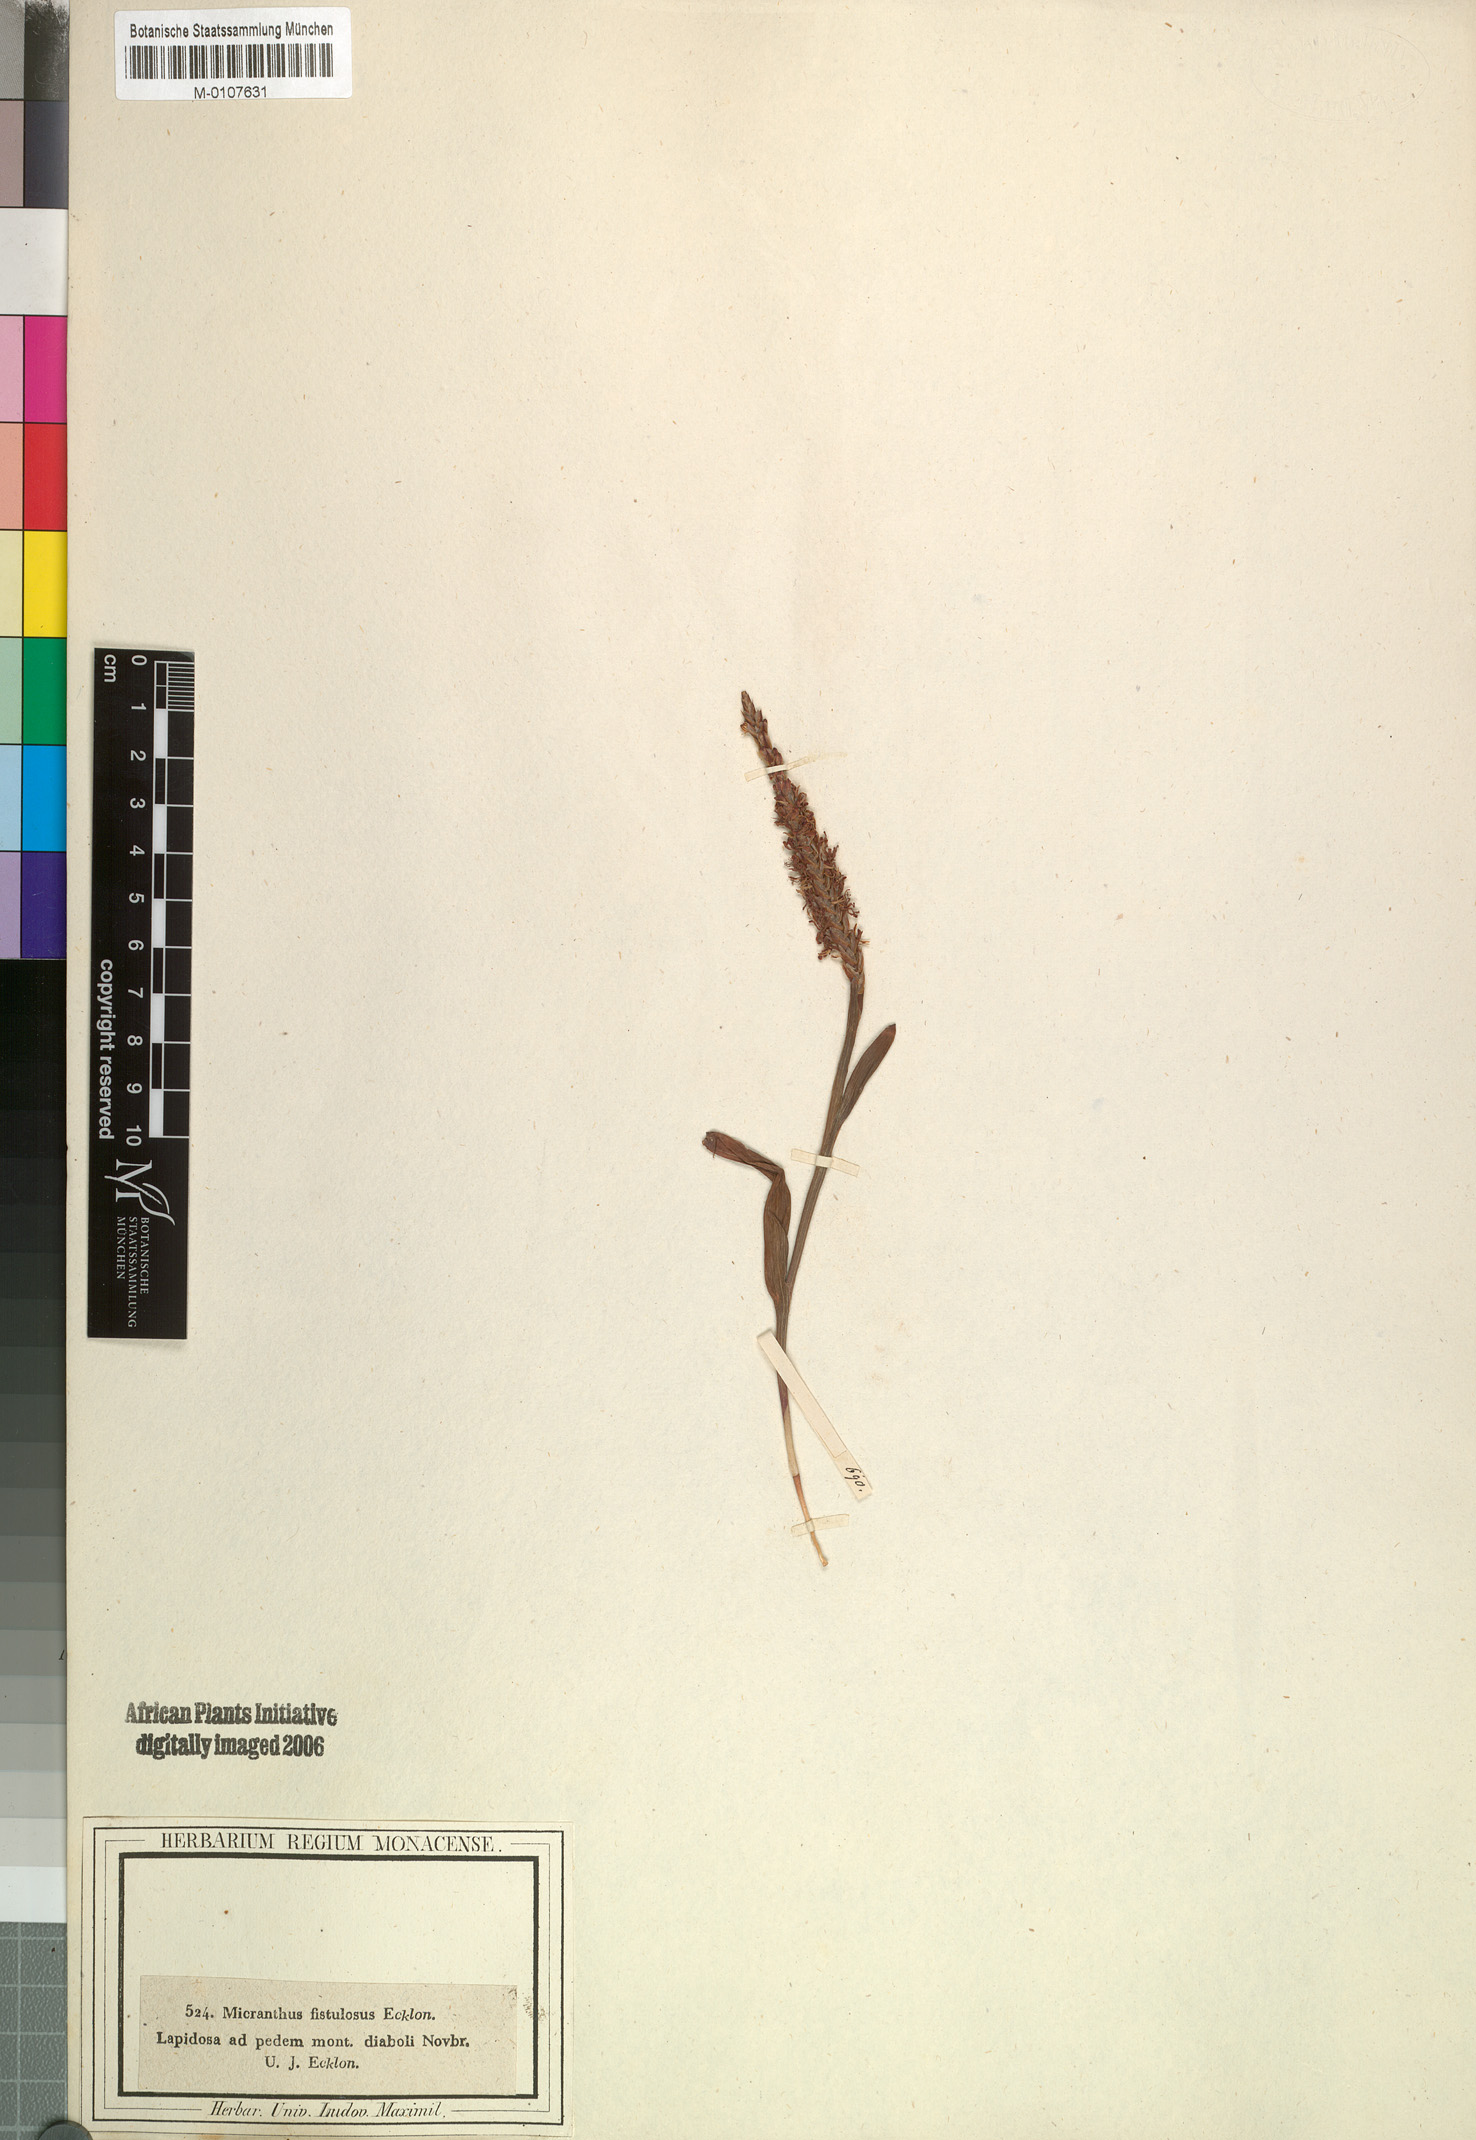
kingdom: Plantae
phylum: Tracheophyta
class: Liliopsida
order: Asparagales
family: Iridaceae
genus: Micranthus
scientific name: Micranthus alopecuroides
